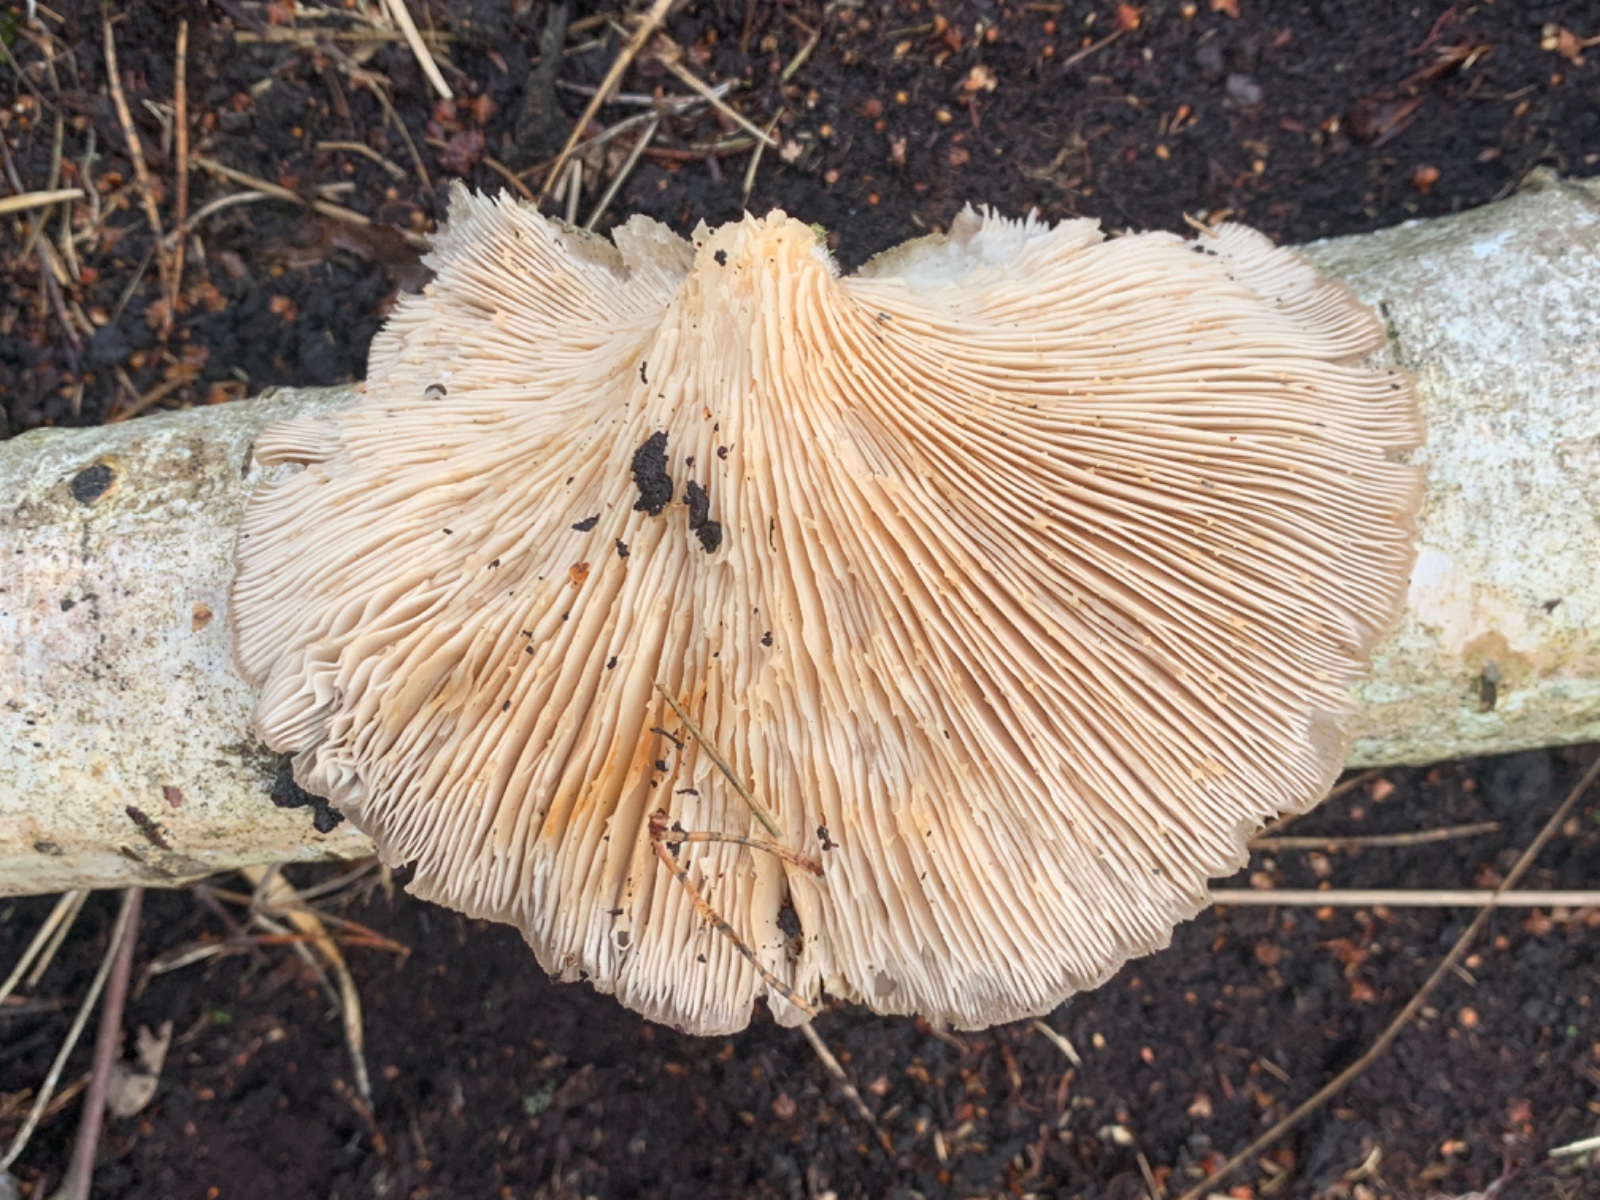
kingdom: Fungi
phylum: Basidiomycota
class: Agaricomycetes
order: Agaricales
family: Pleurotaceae
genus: Pleurotus
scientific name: Pleurotus ostreatus
